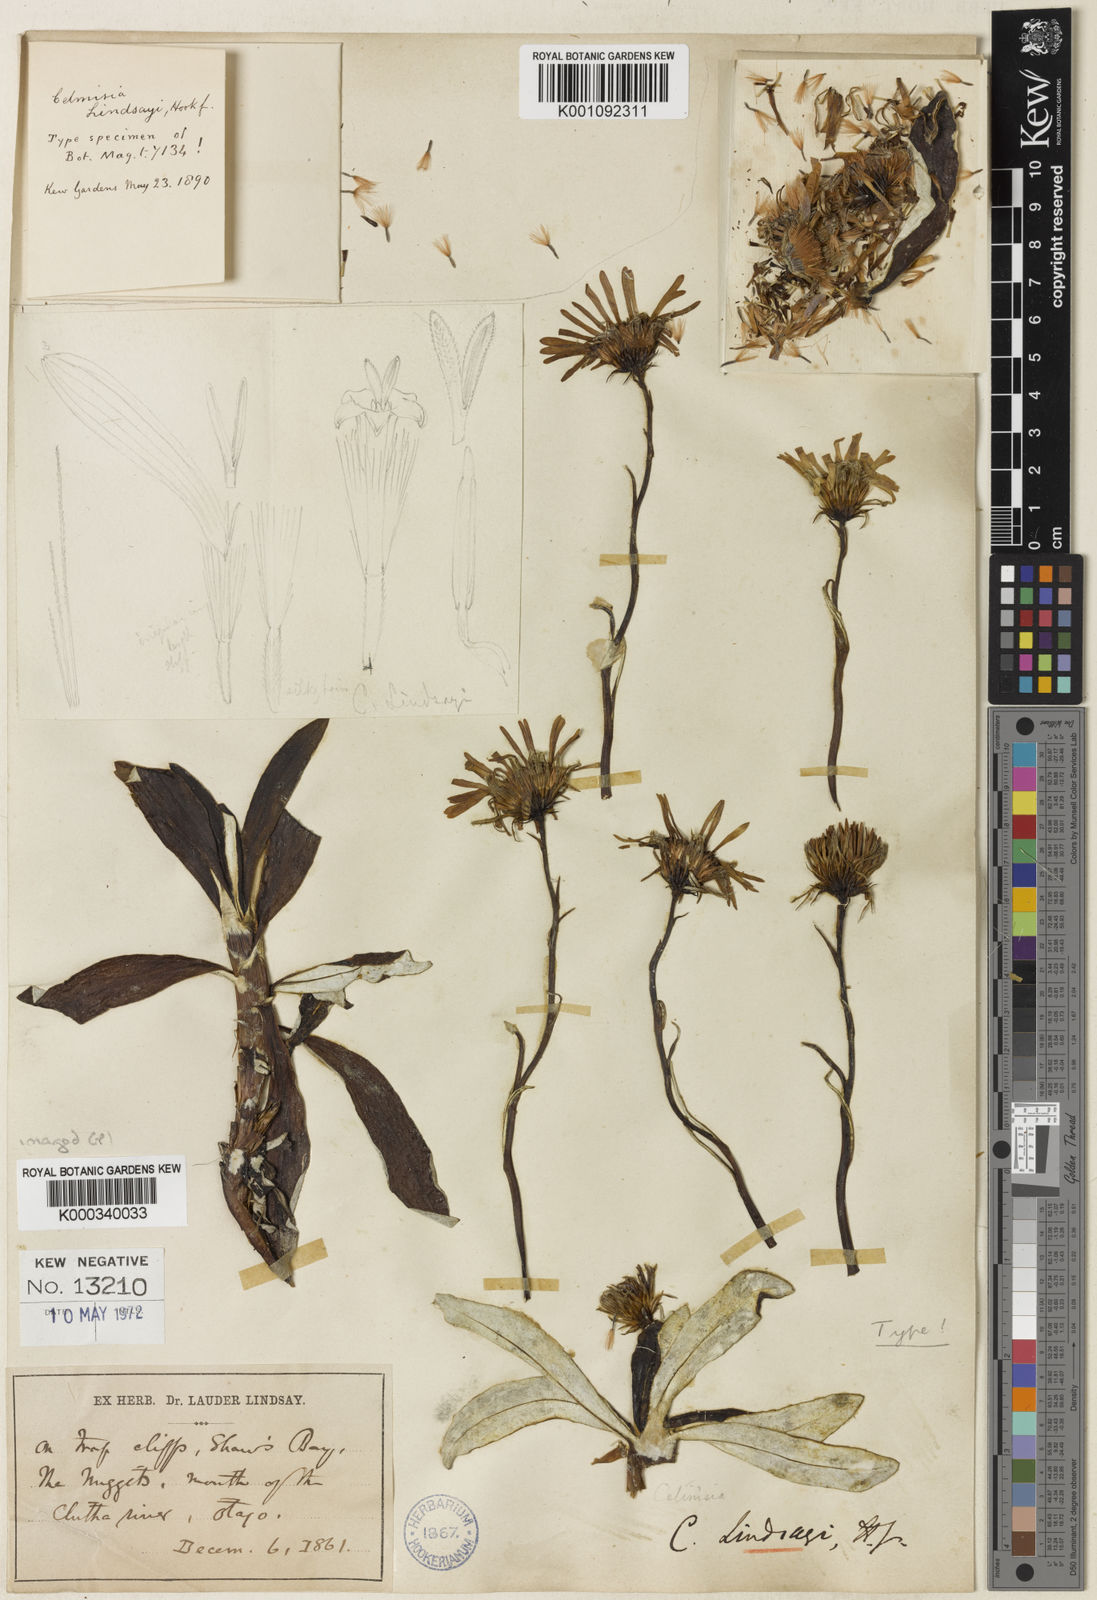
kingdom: Plantae
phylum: Tracheophyta
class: Magnoliopsida
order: Asterales
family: Asteraceae
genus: Celmisia
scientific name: Celmisia lindsayi
